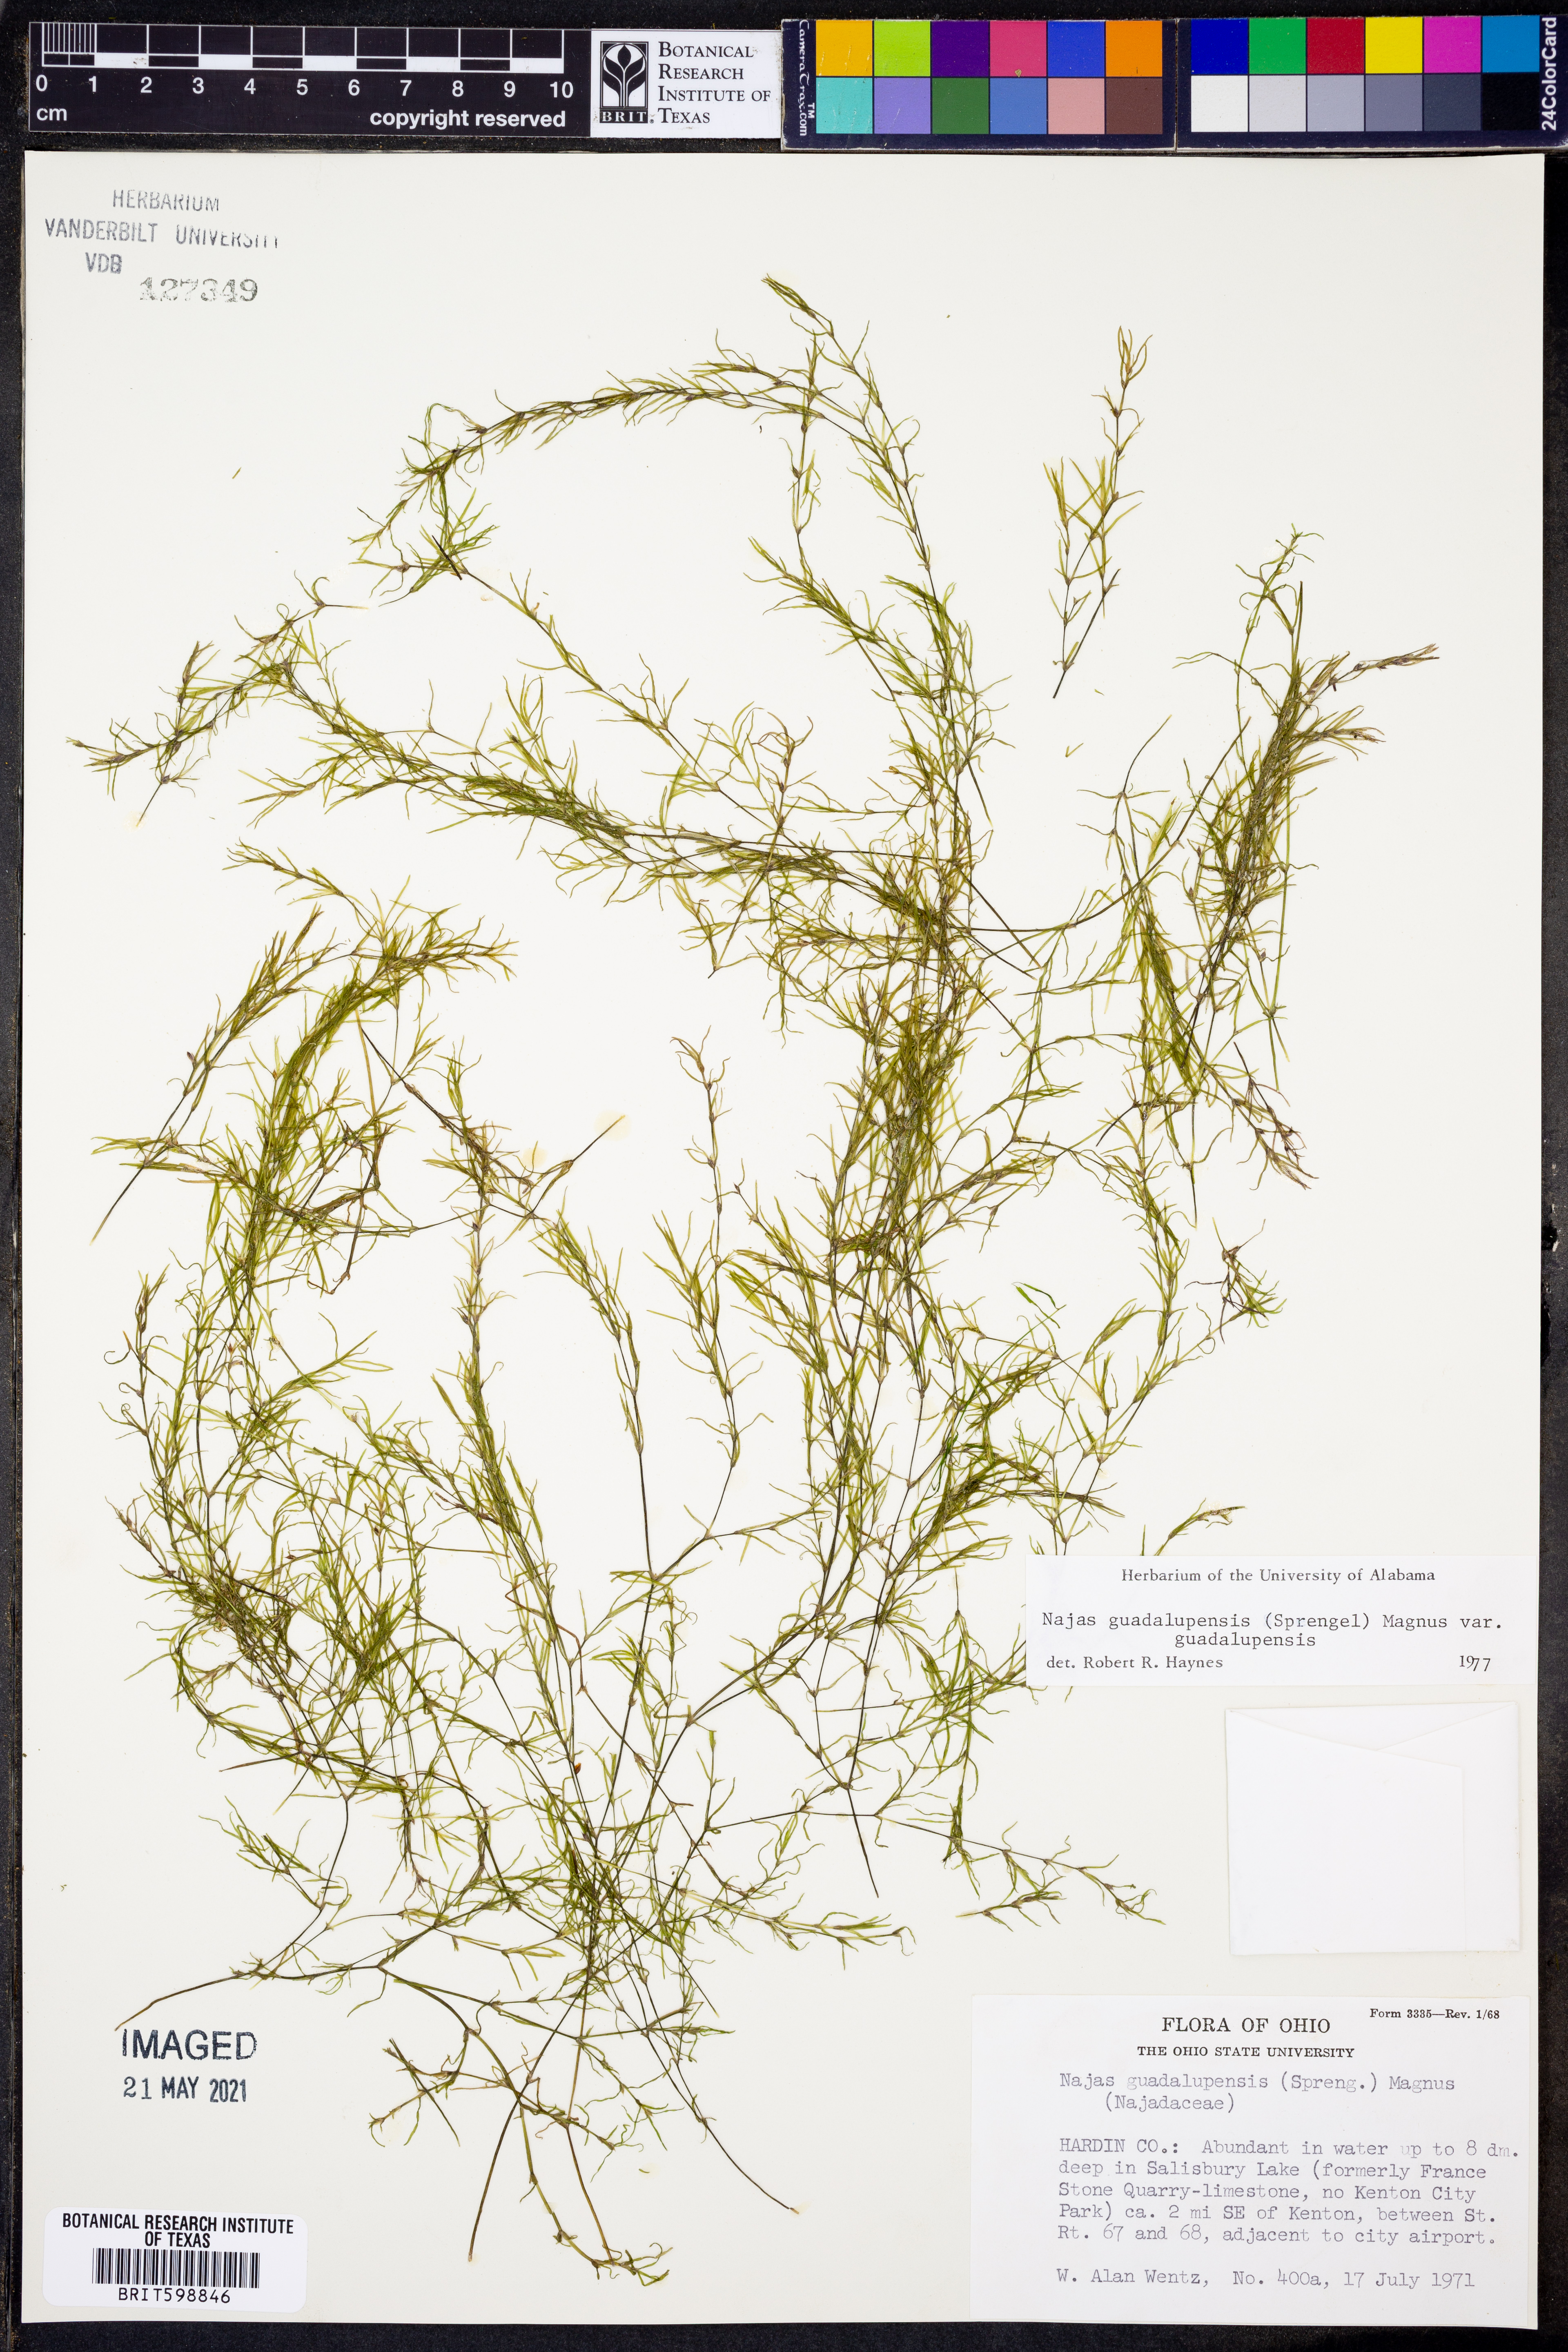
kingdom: Plantae
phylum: Tracheophyta
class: Liliopsida
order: Alismatales
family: Hydrocharitaceae
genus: Najas
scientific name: Najas guadalupensis
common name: Southern naiad
